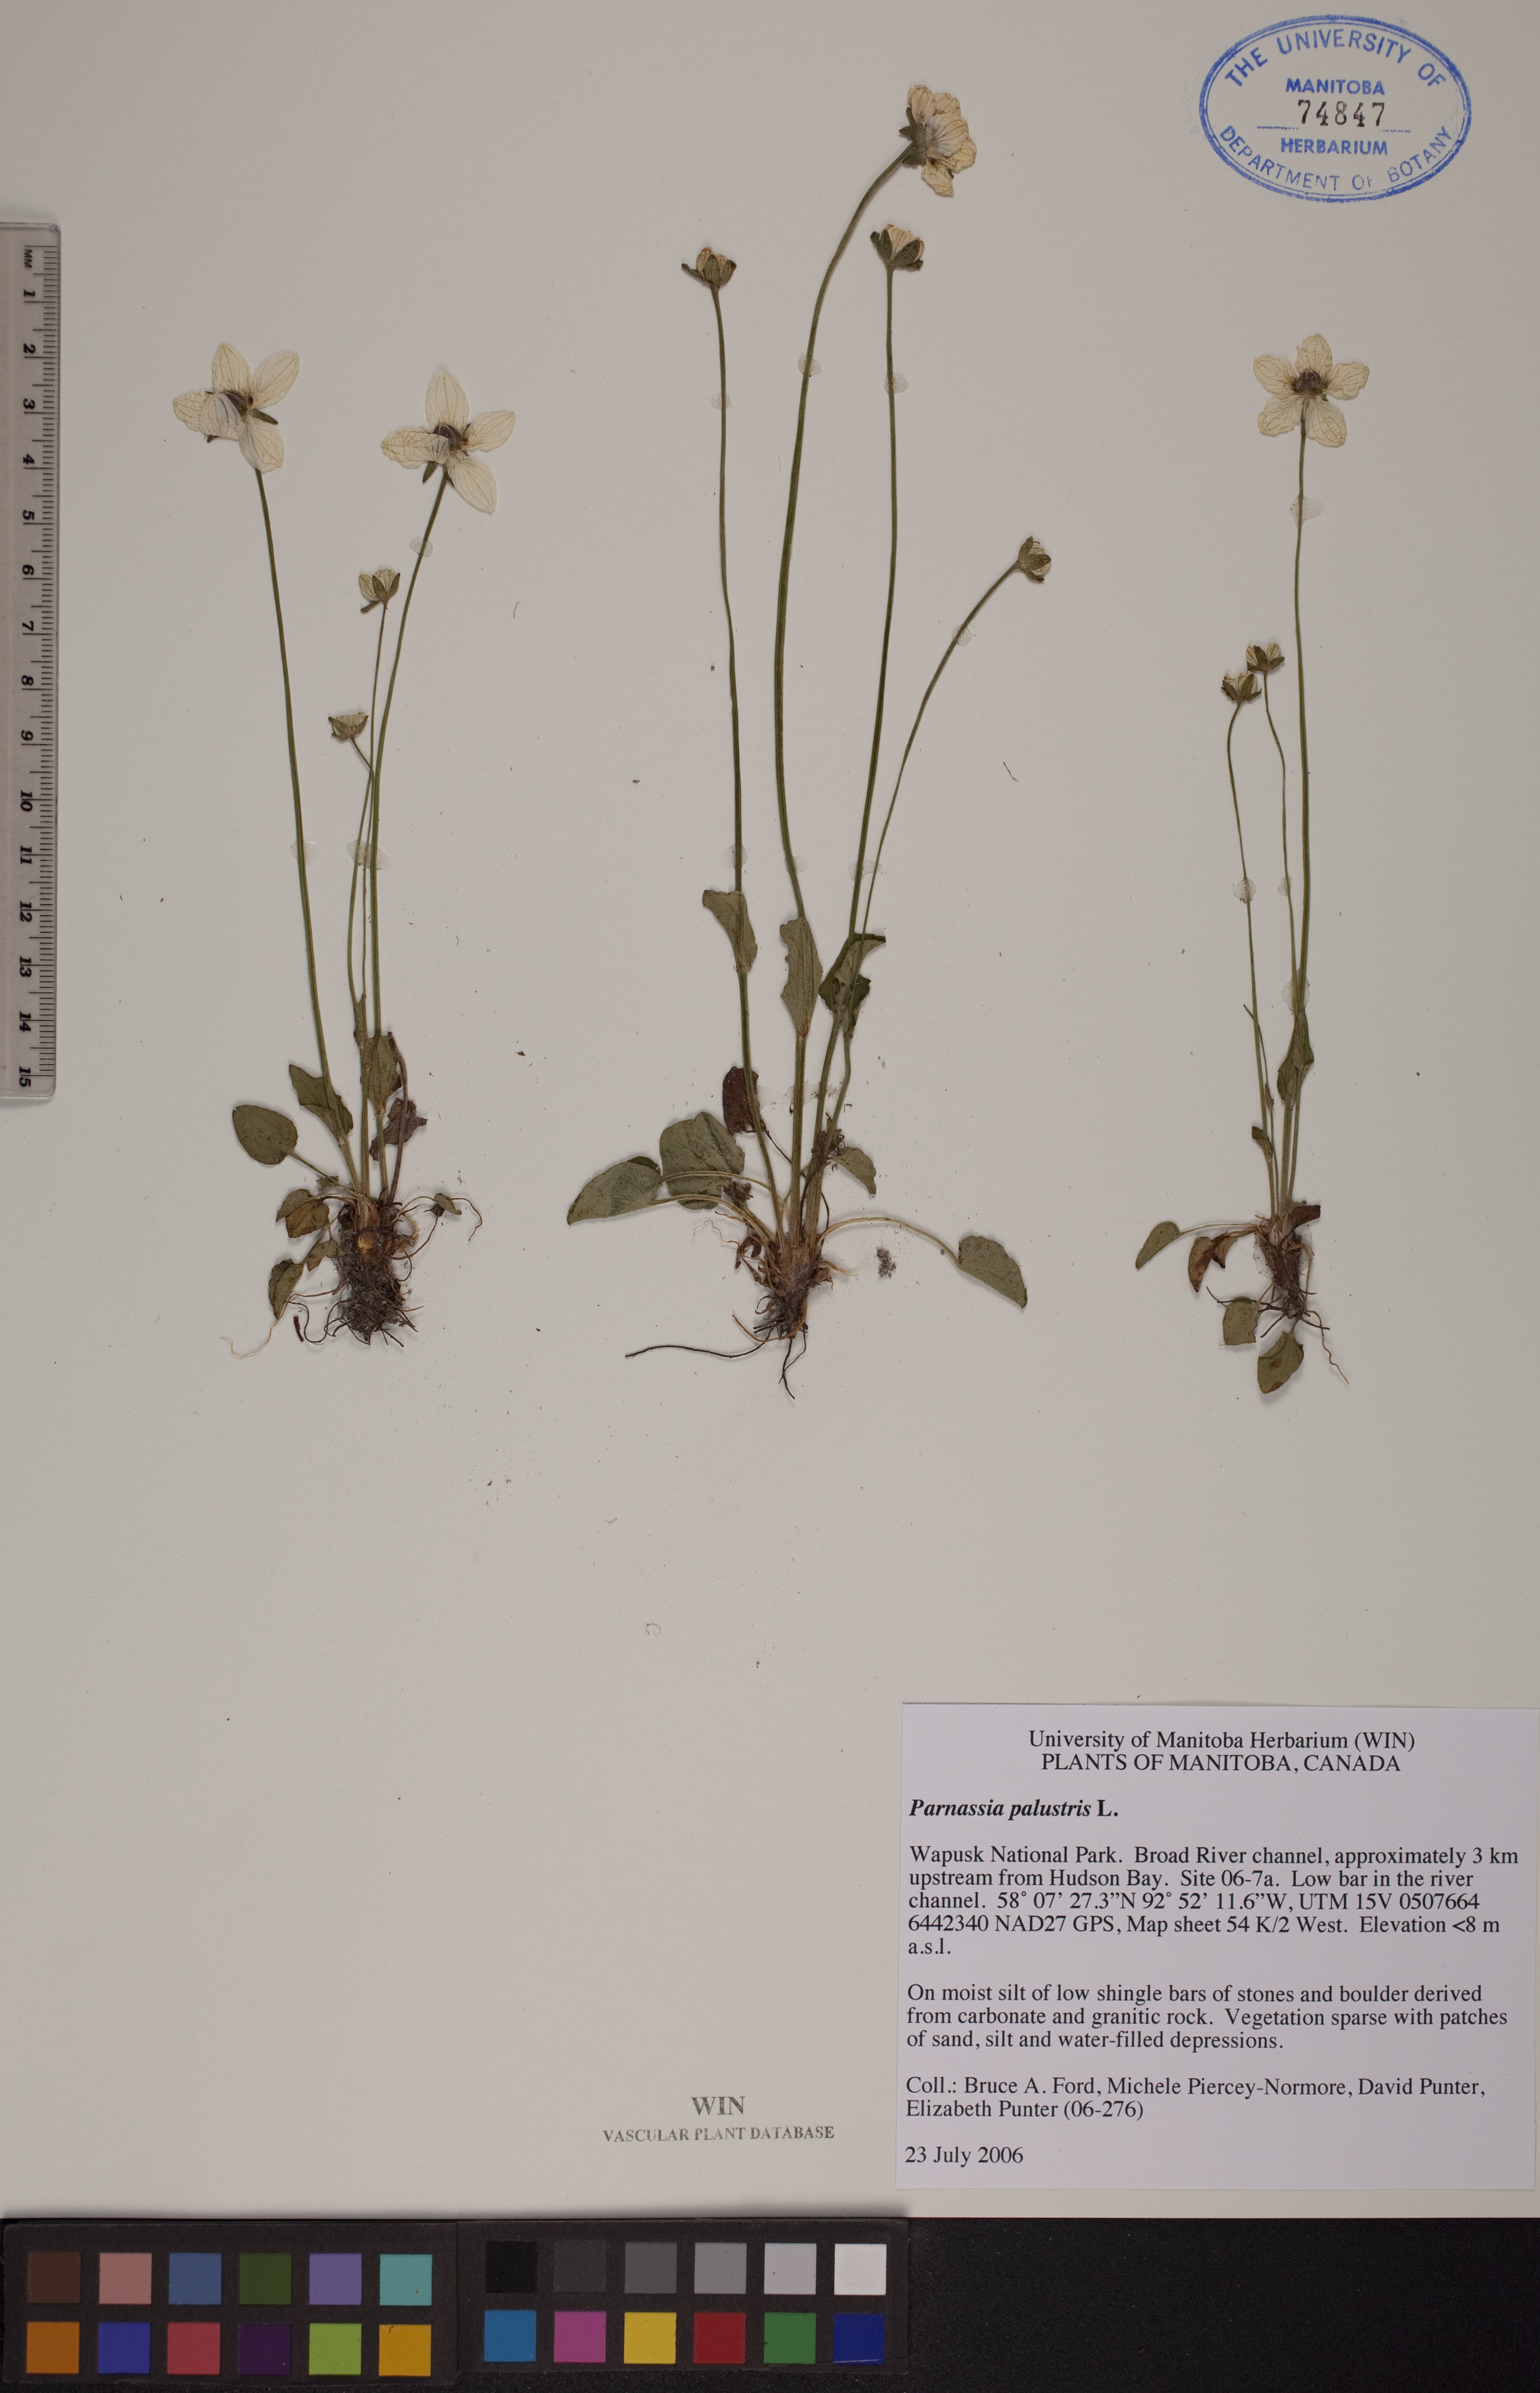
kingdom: Plantae
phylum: Tracheophyta
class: Magnoliopsida
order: Celastrales
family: Parnassiaceae
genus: Parnassia
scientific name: Parnassia palustris
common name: Grass-of-parnassus
